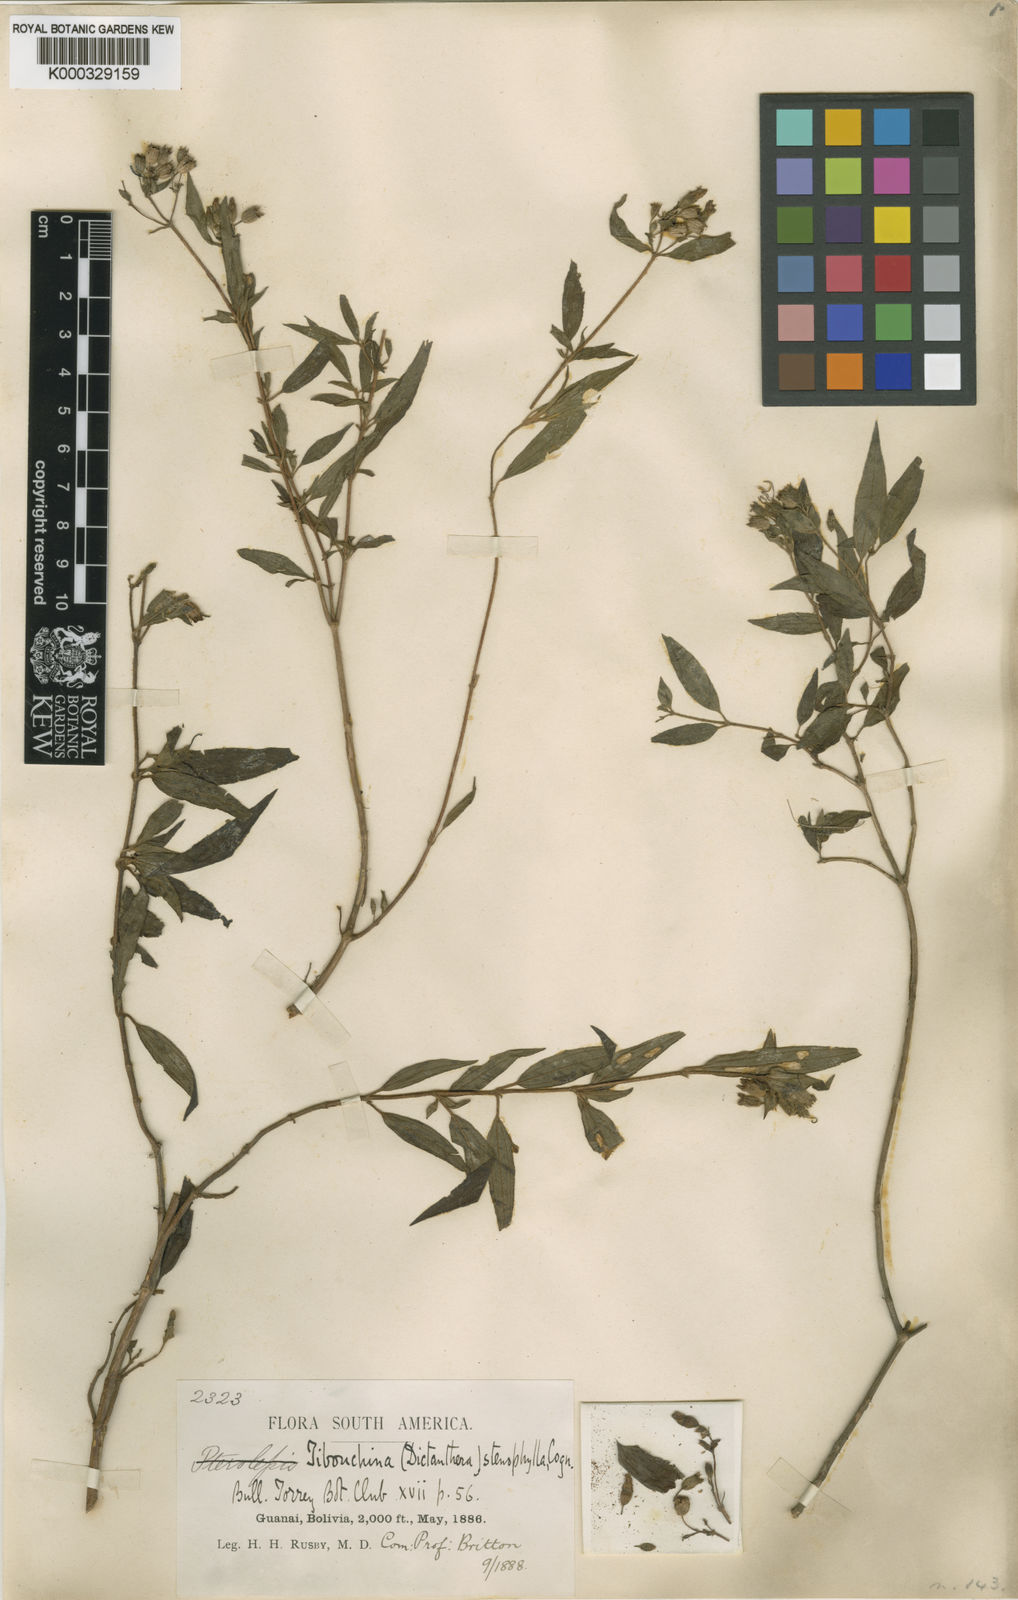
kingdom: Plantae
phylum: Tracheophyta
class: Magnoliopsida
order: Myrtales
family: Melastomataceae
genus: Chaetogastra
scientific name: Chaetogastra stenophylla
